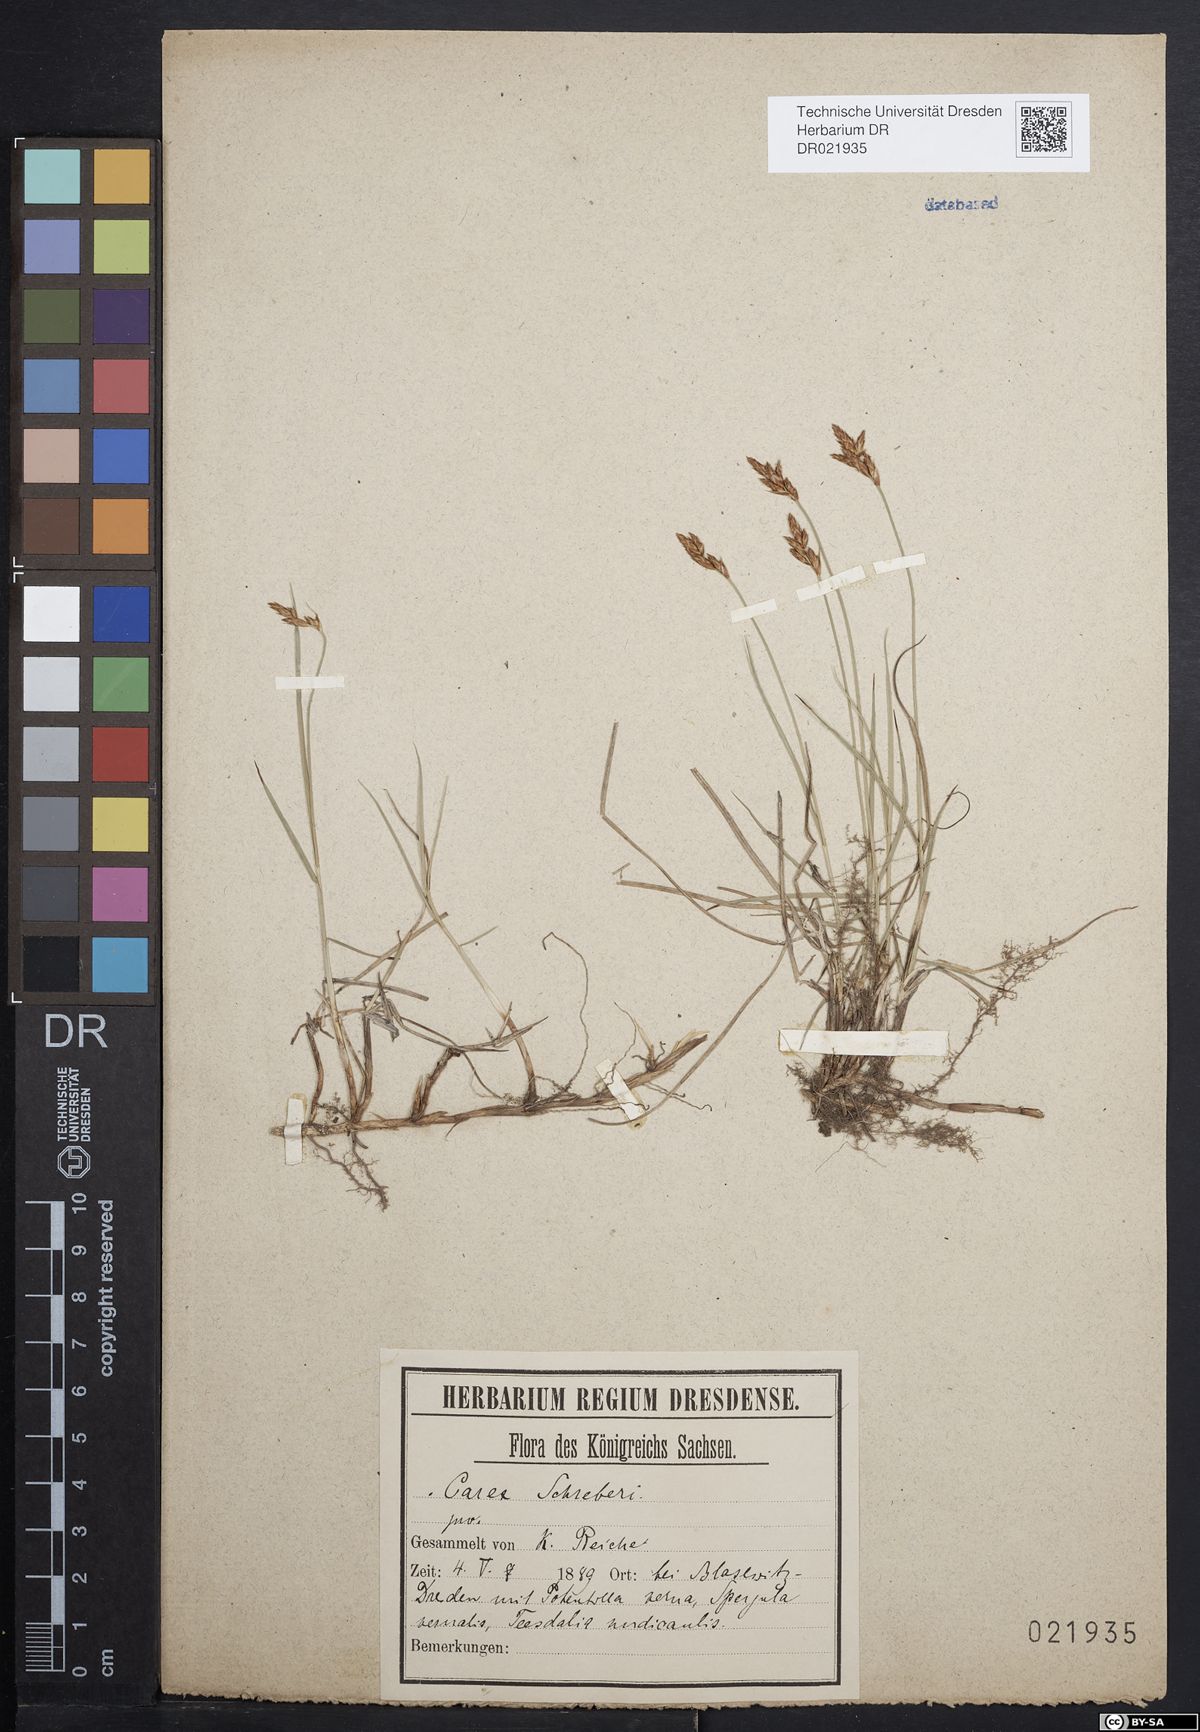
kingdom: Plantae
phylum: Tracheophyta
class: Liliopsida
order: Poales
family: Cyperaceae
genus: Carex
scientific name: Carex praecox
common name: Early sedge
